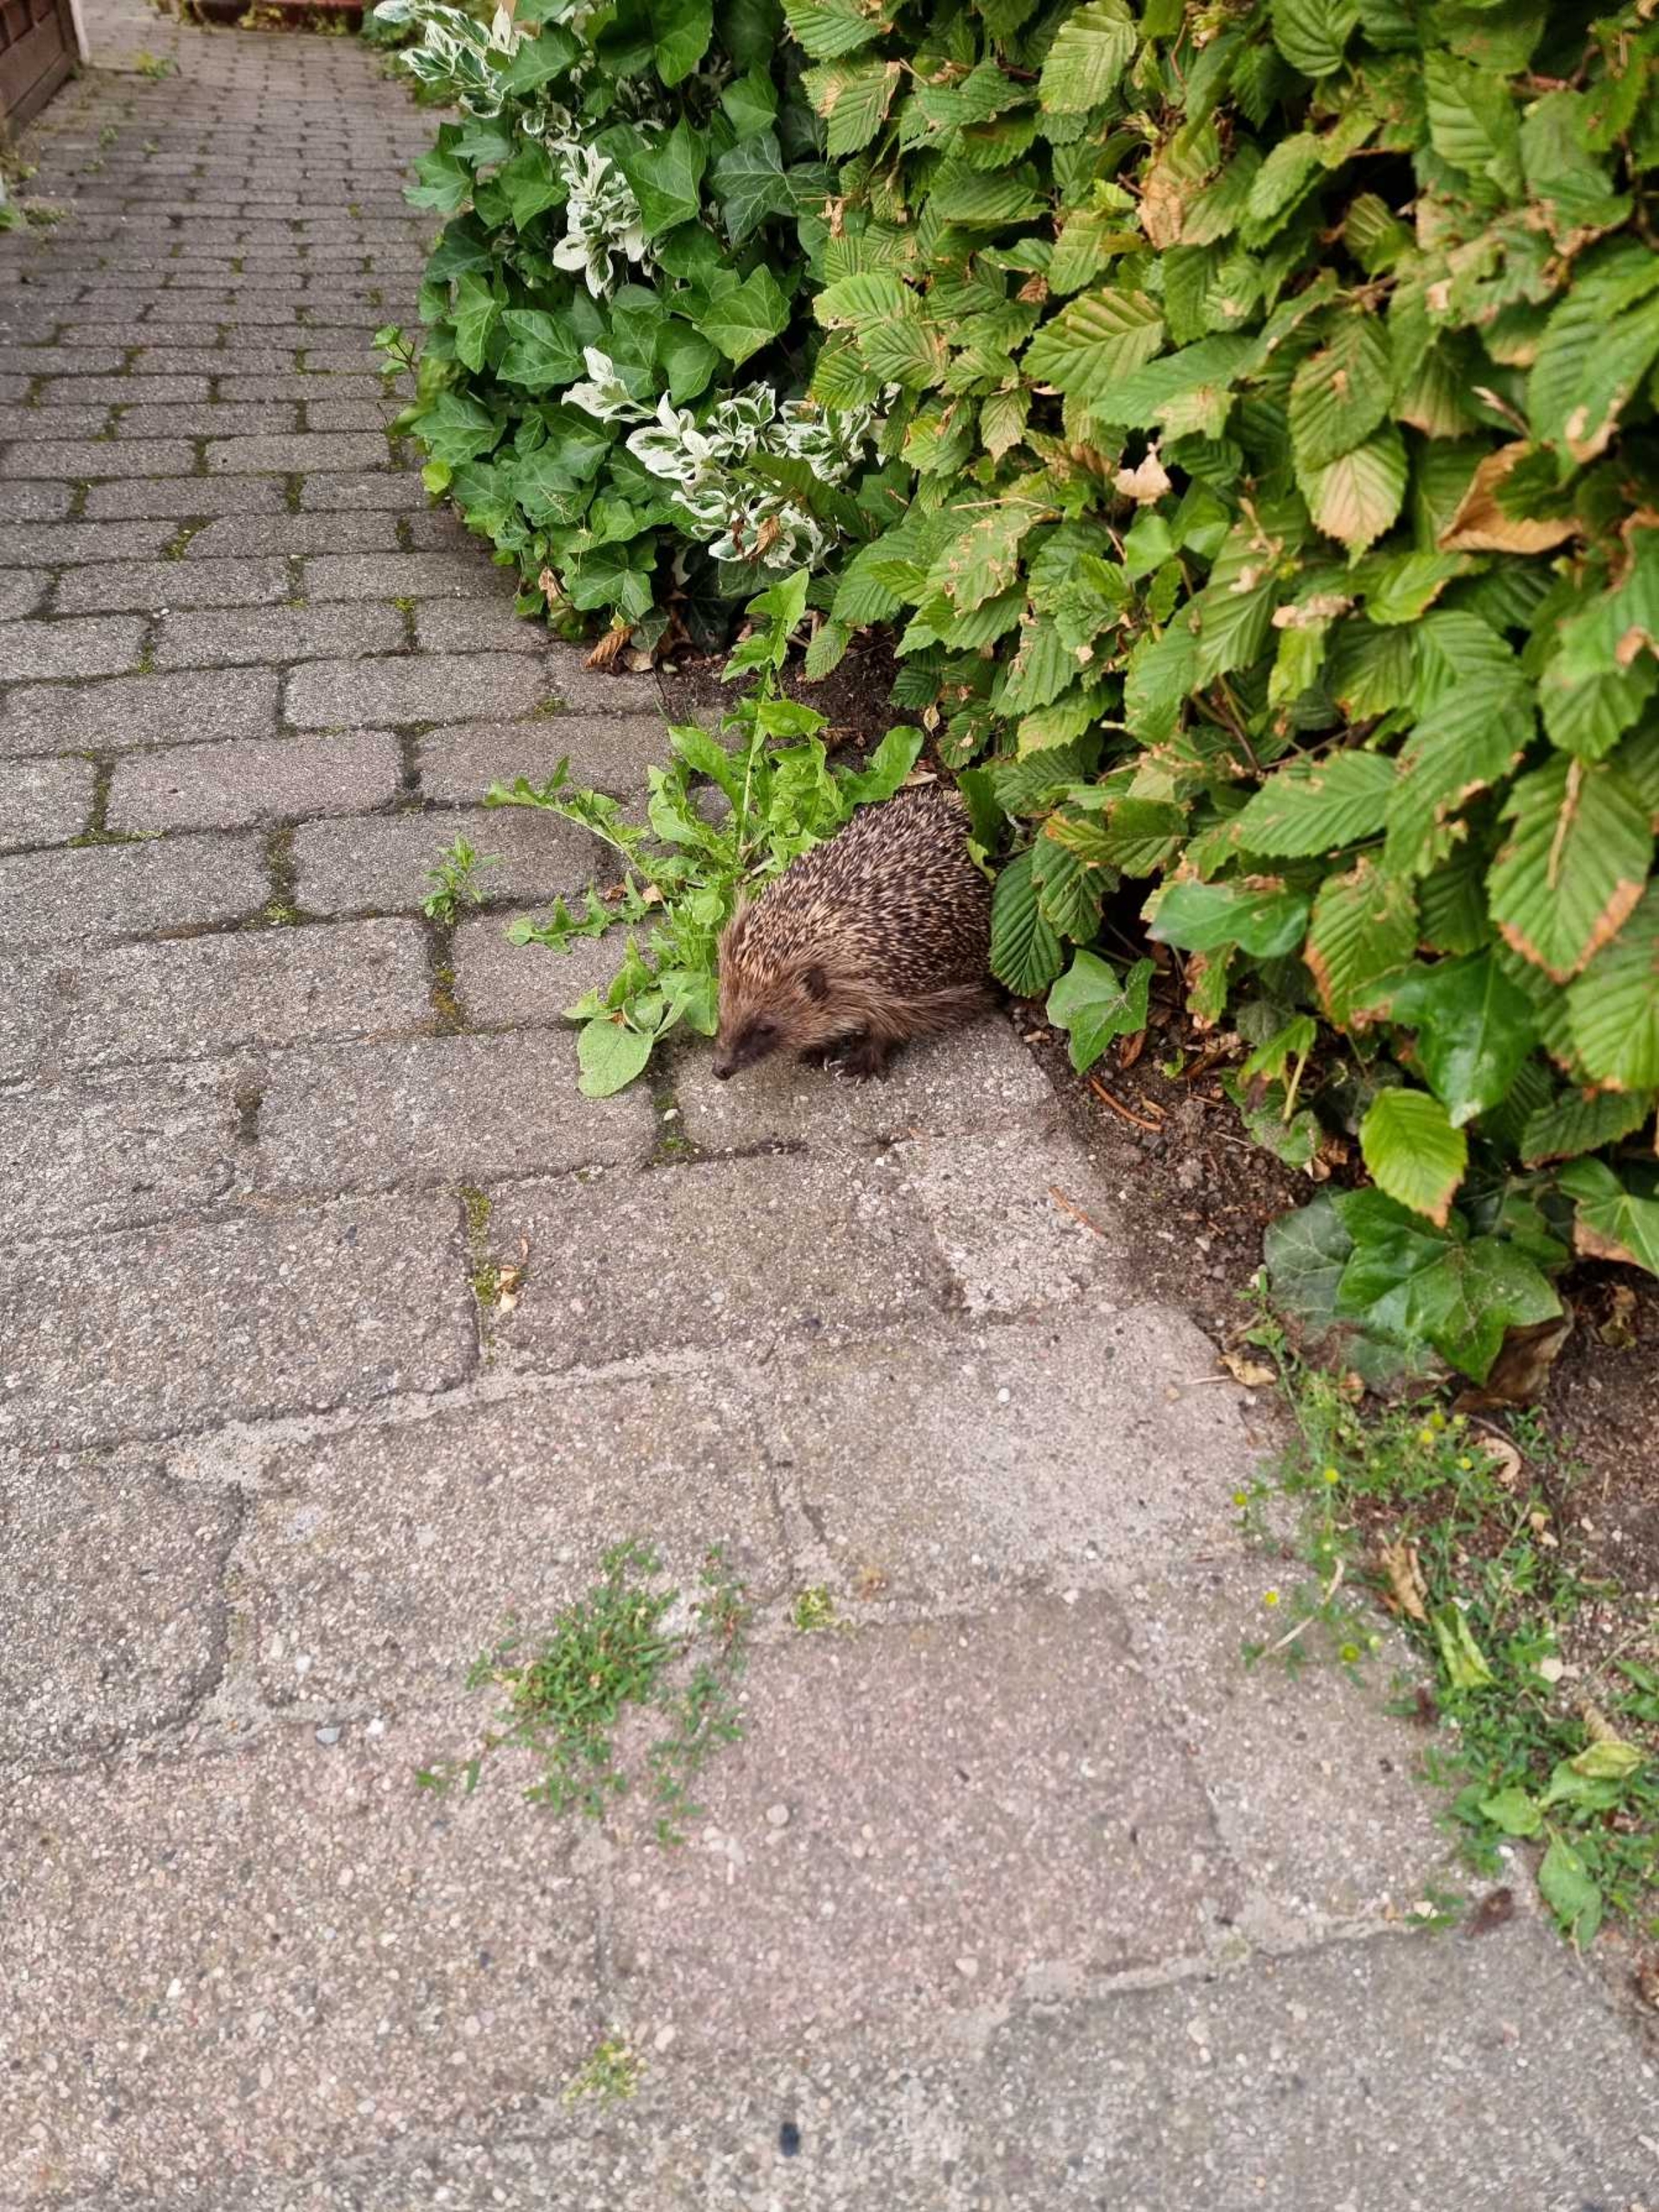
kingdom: Animalia
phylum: Chordata
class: Mammalia
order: Erinaceomorpha
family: Erinaceidae
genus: Erinaceus
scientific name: Erinaceus europaeus
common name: Pindsvin
